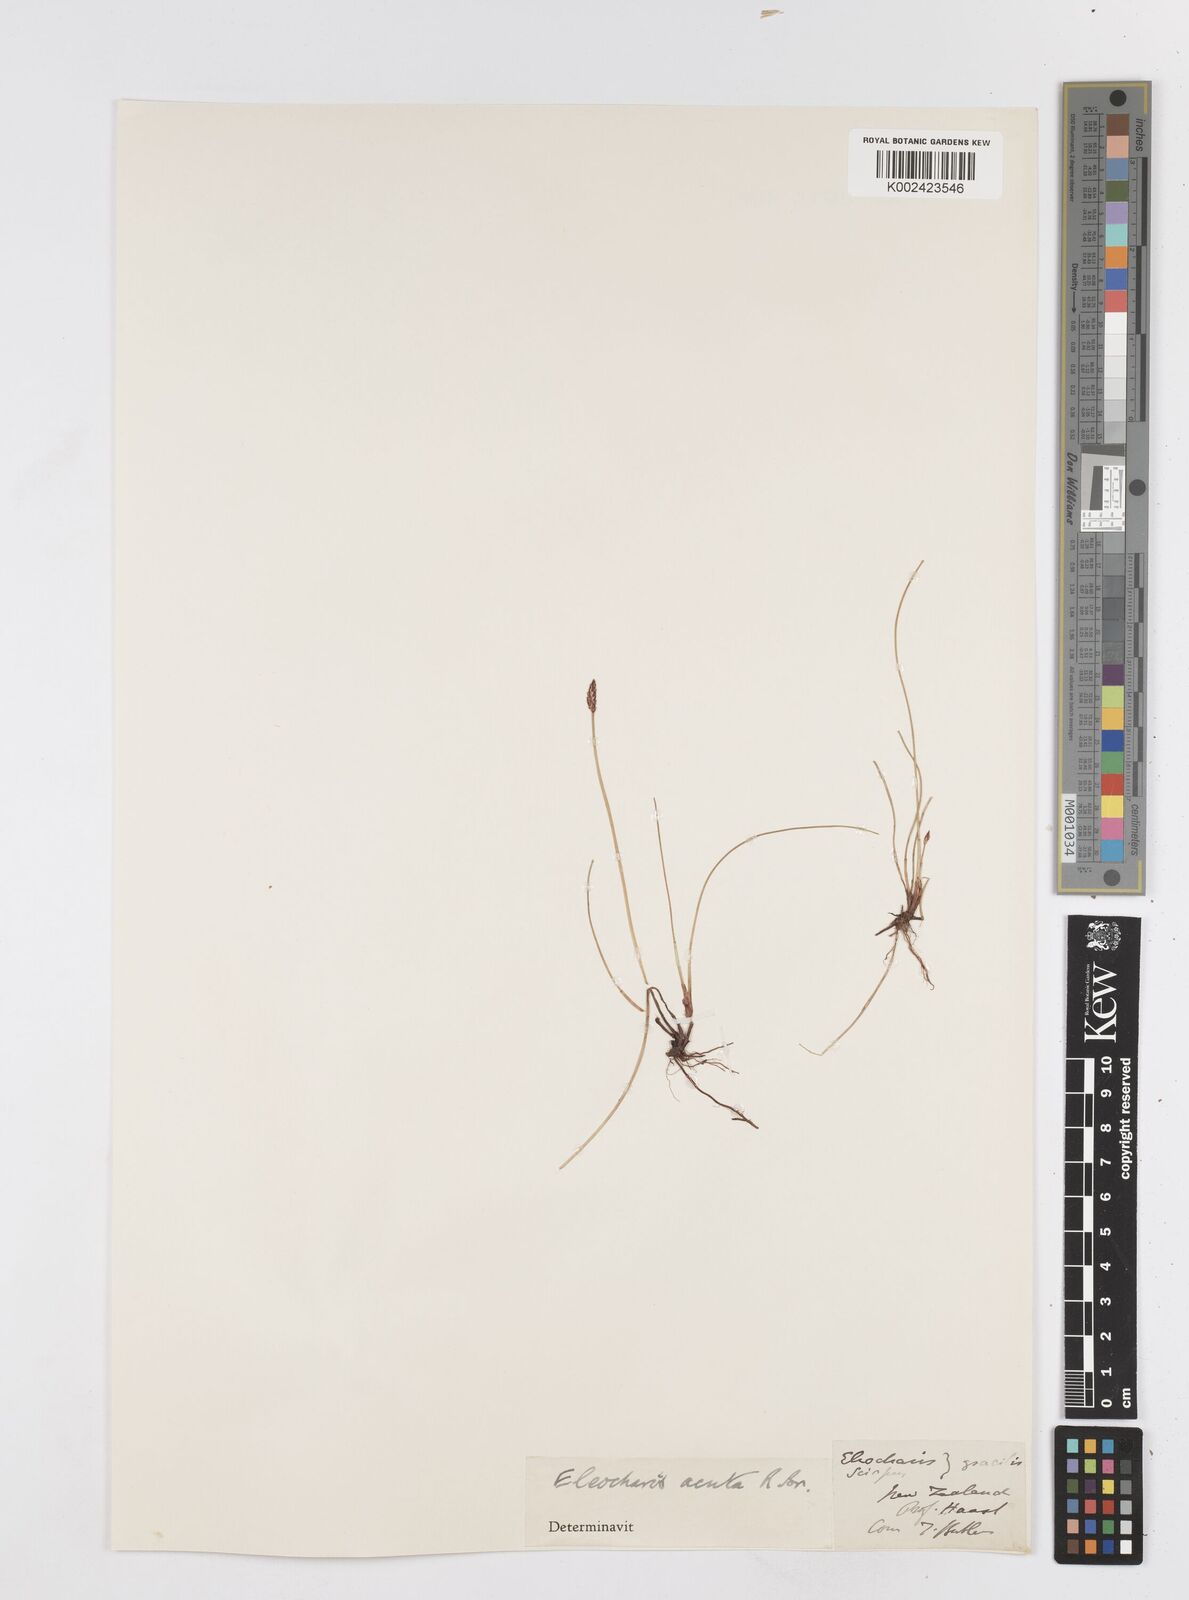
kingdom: Plantae
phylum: Tracheophyta
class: Liliopsida
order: Poales
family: Cyperaceae
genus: Eleocharis
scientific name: Eleocharis acuta
